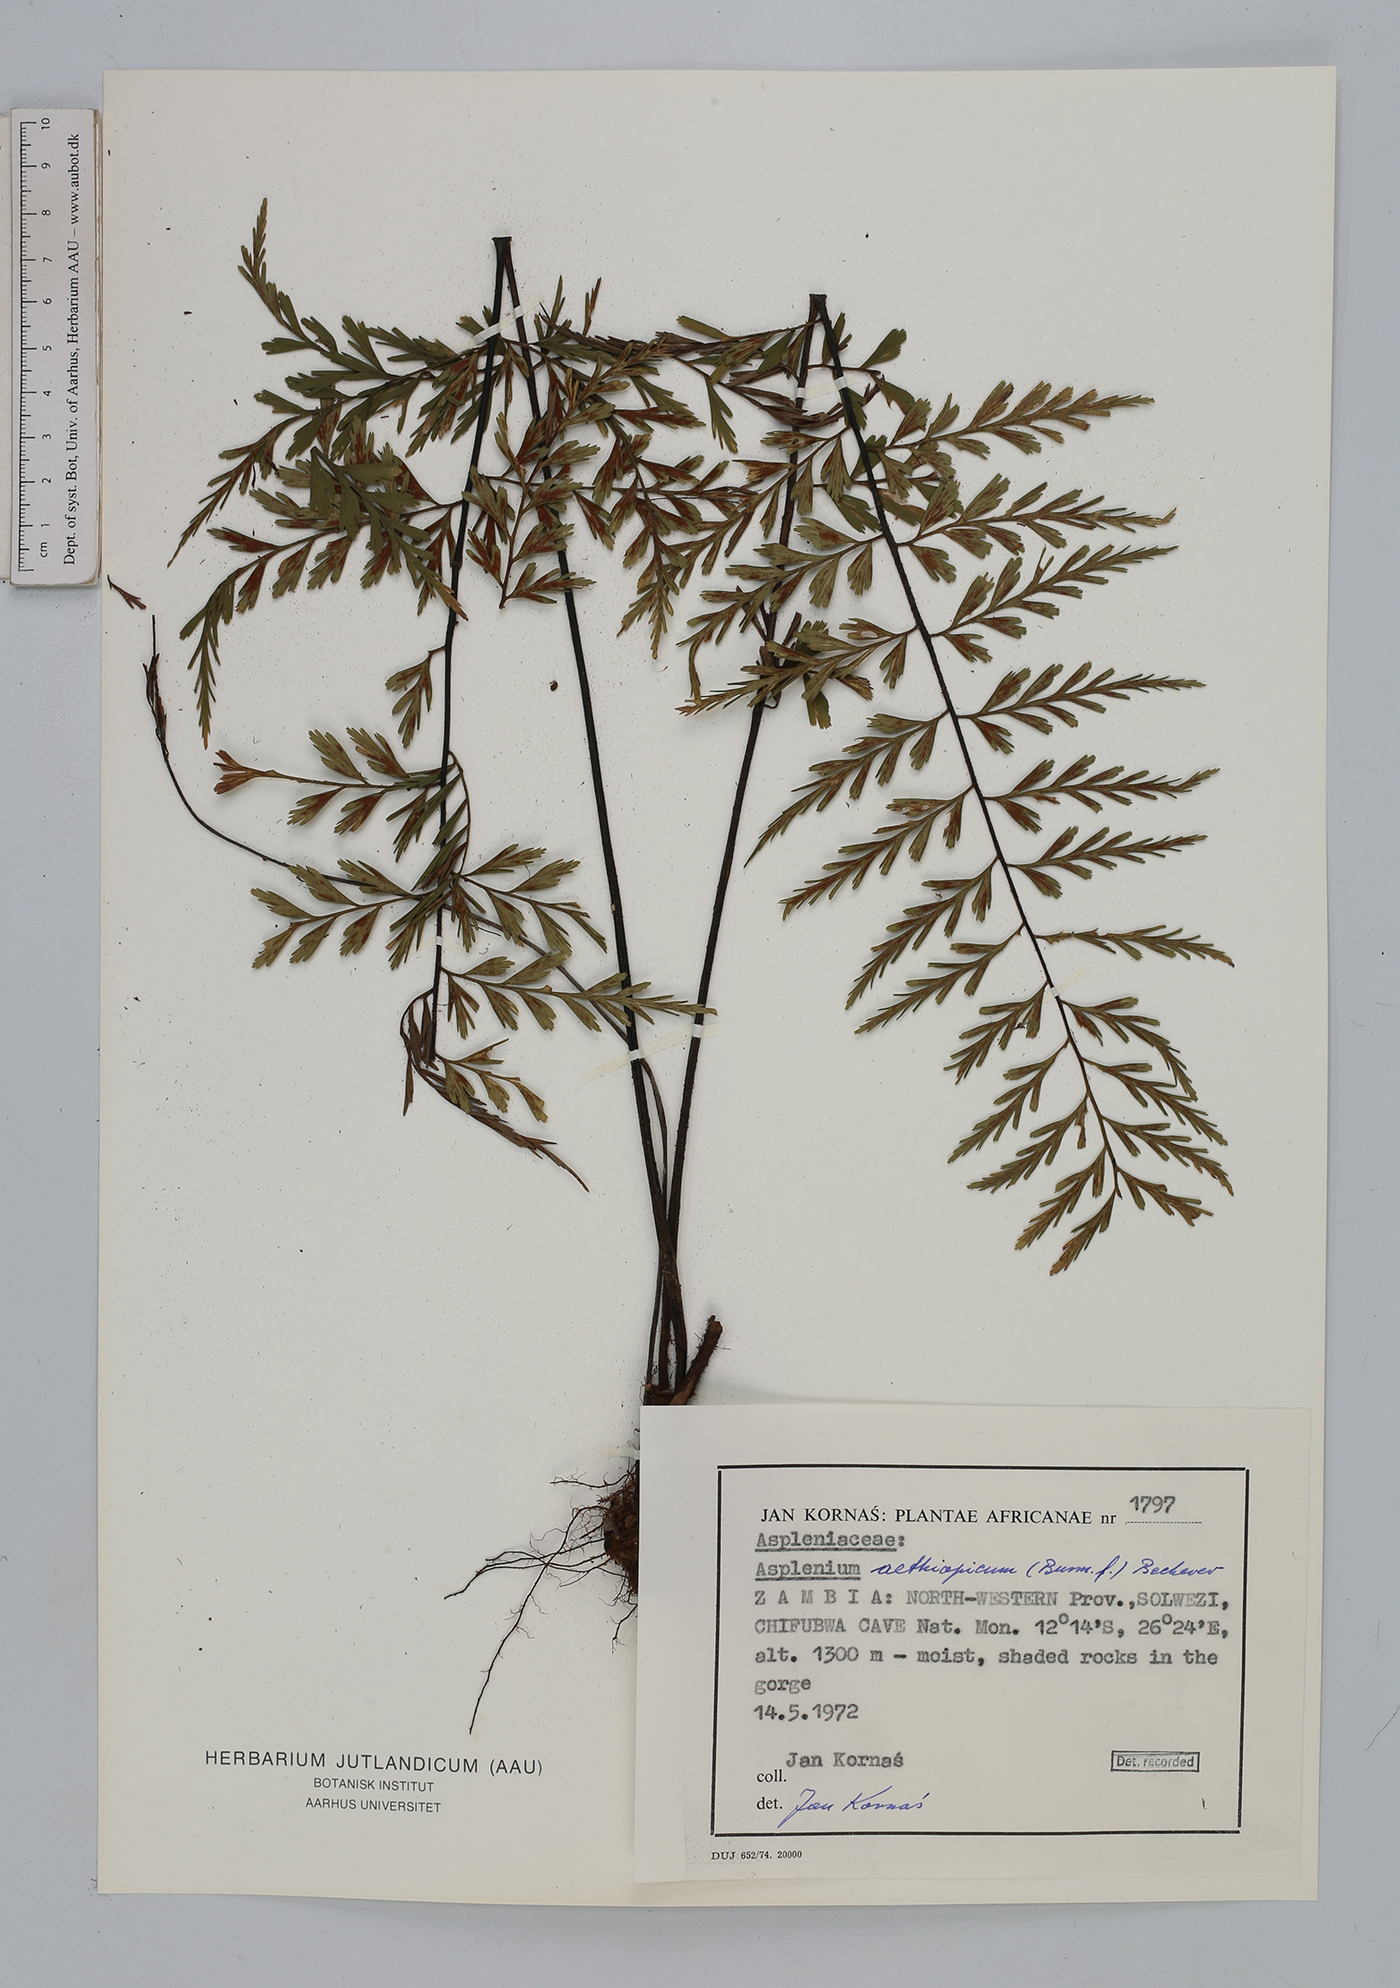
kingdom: Plantae
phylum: Tracheophyta
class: Polypodiopsida
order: Polypodiales
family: Aspleniaceae
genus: Asplenium
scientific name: Asplenium aethiopicum
